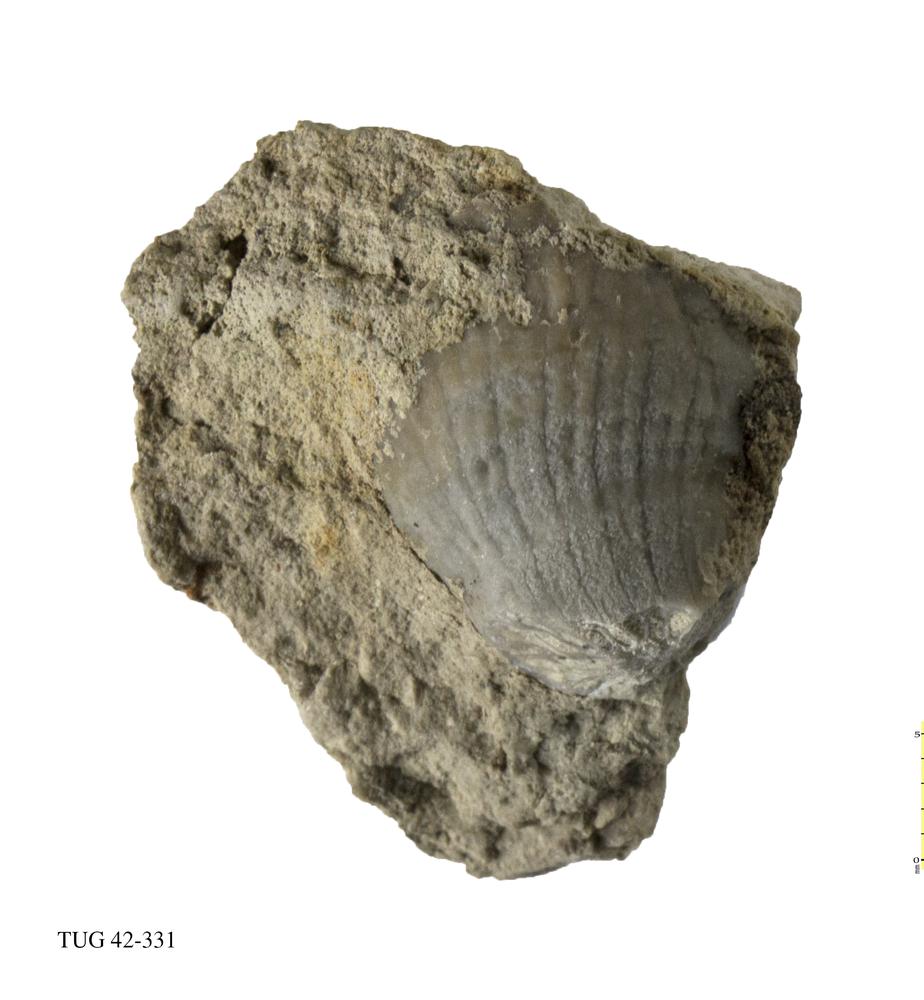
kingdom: Animalia
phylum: Cnidaria
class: Anthozoa
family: Streptelasmatidae
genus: Streptelasma
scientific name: Streptelasma corniculum
